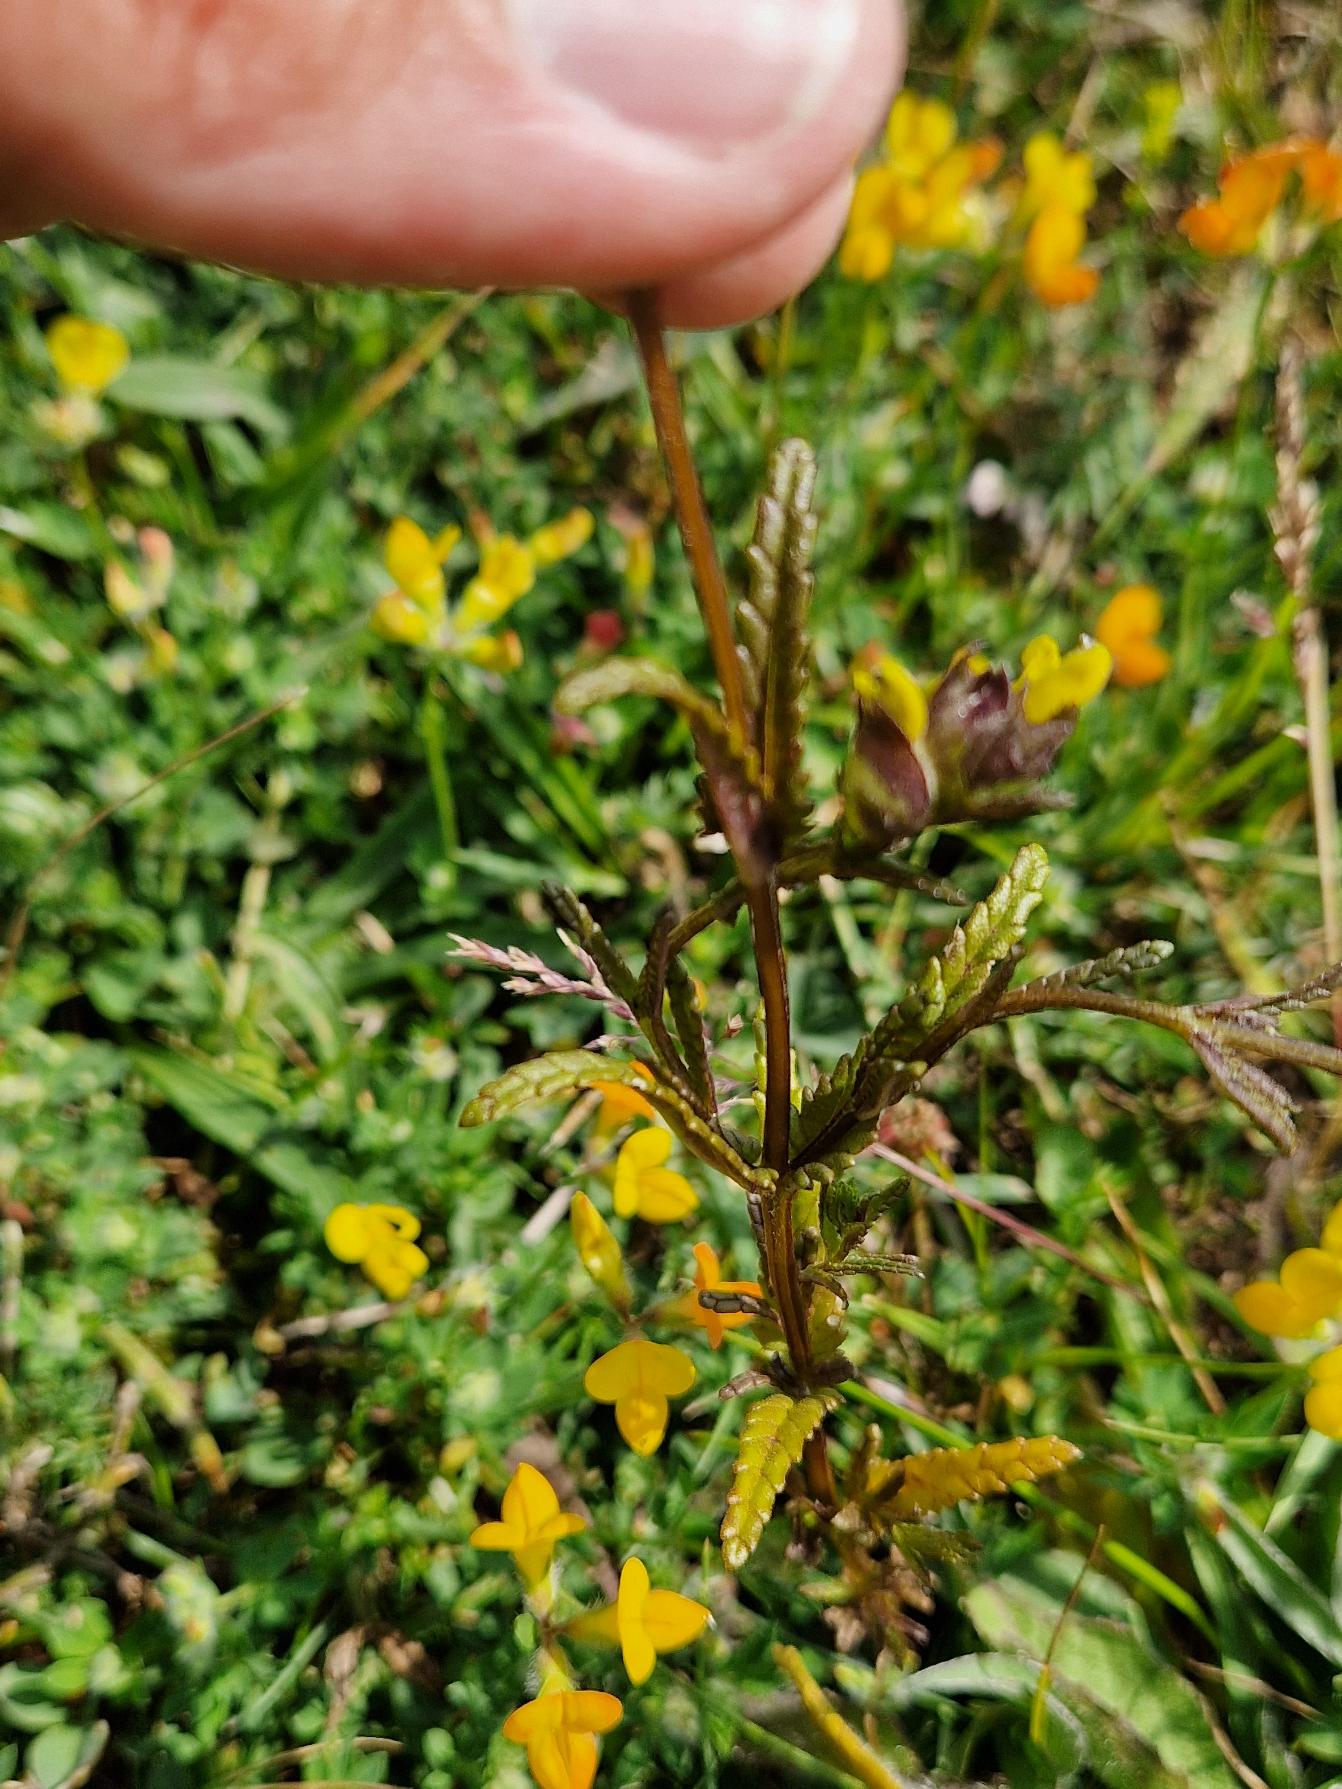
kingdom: Plantae
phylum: Tracheophyta
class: Magnoliopsida
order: Lamiales
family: Orobanchaceae
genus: Rhinanthus
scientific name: Rhinanthus minor
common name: Liden skjaller
